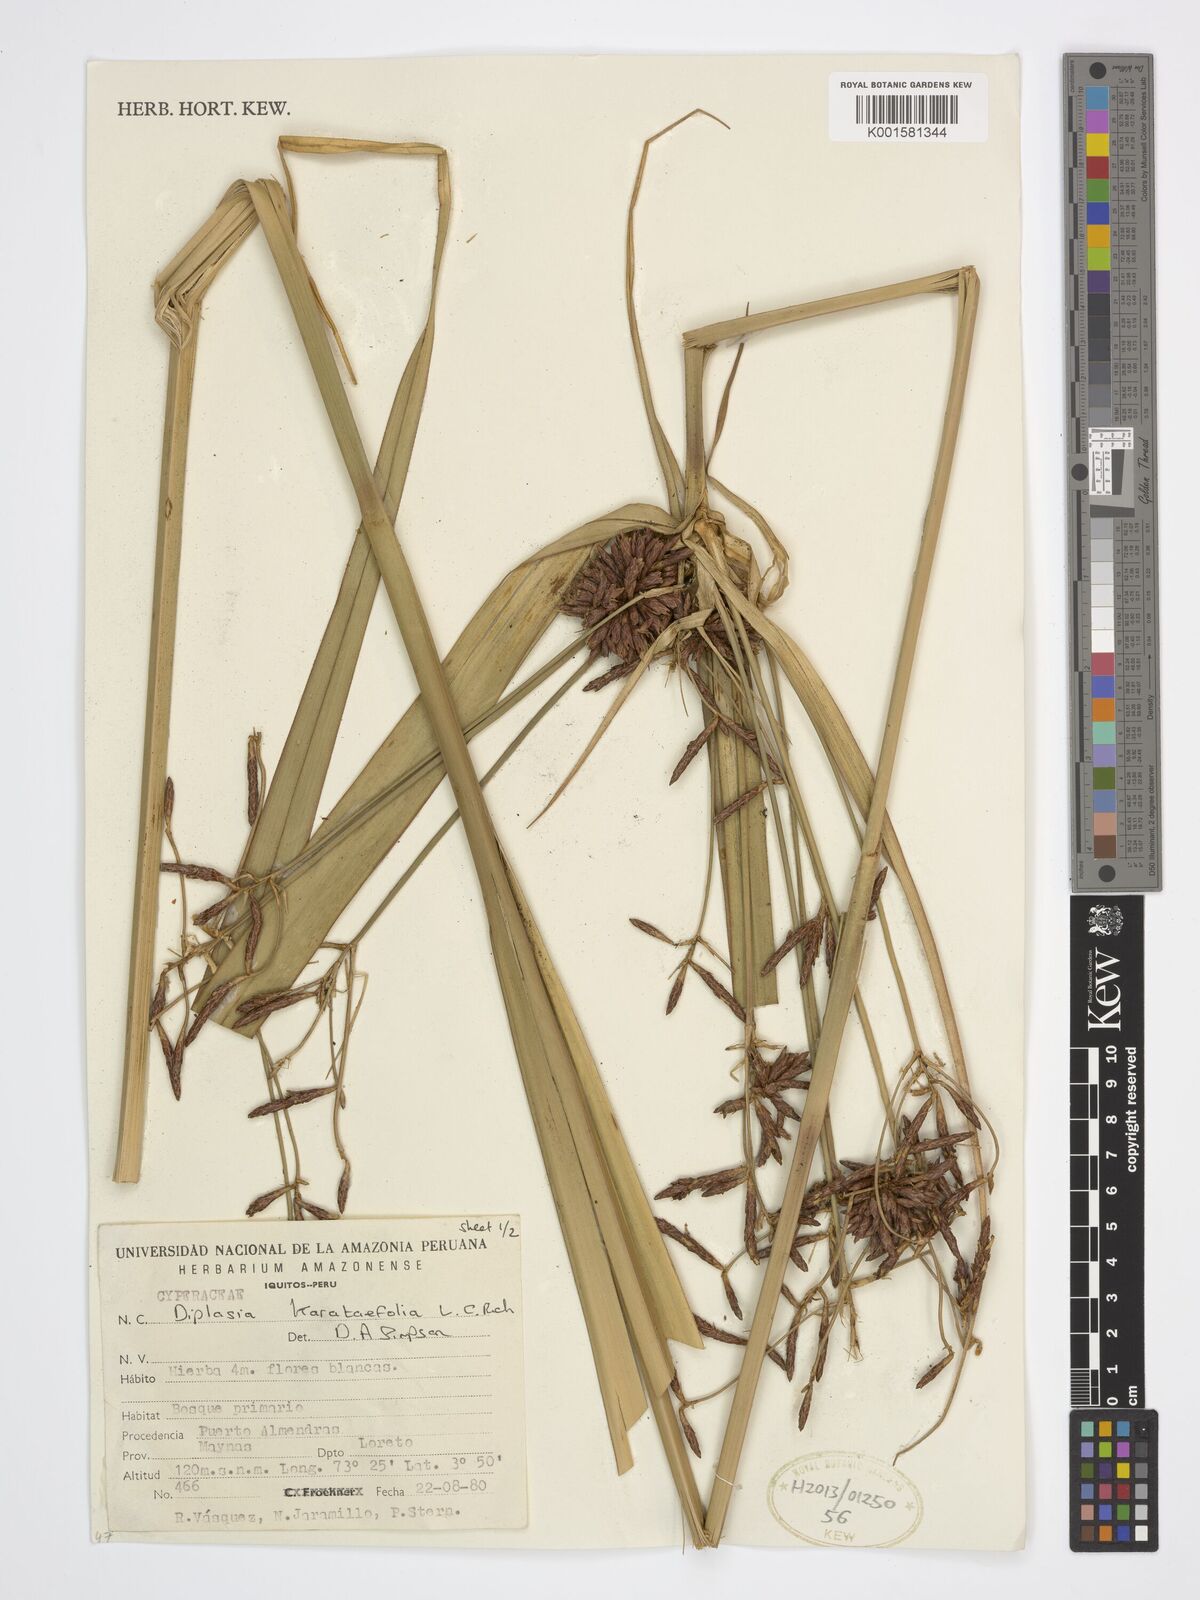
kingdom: Plantae
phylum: Tracheophyta
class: Liliopsida
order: Poales
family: Cyperaceae
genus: Diplasia
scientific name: Diplasia karatifolia
